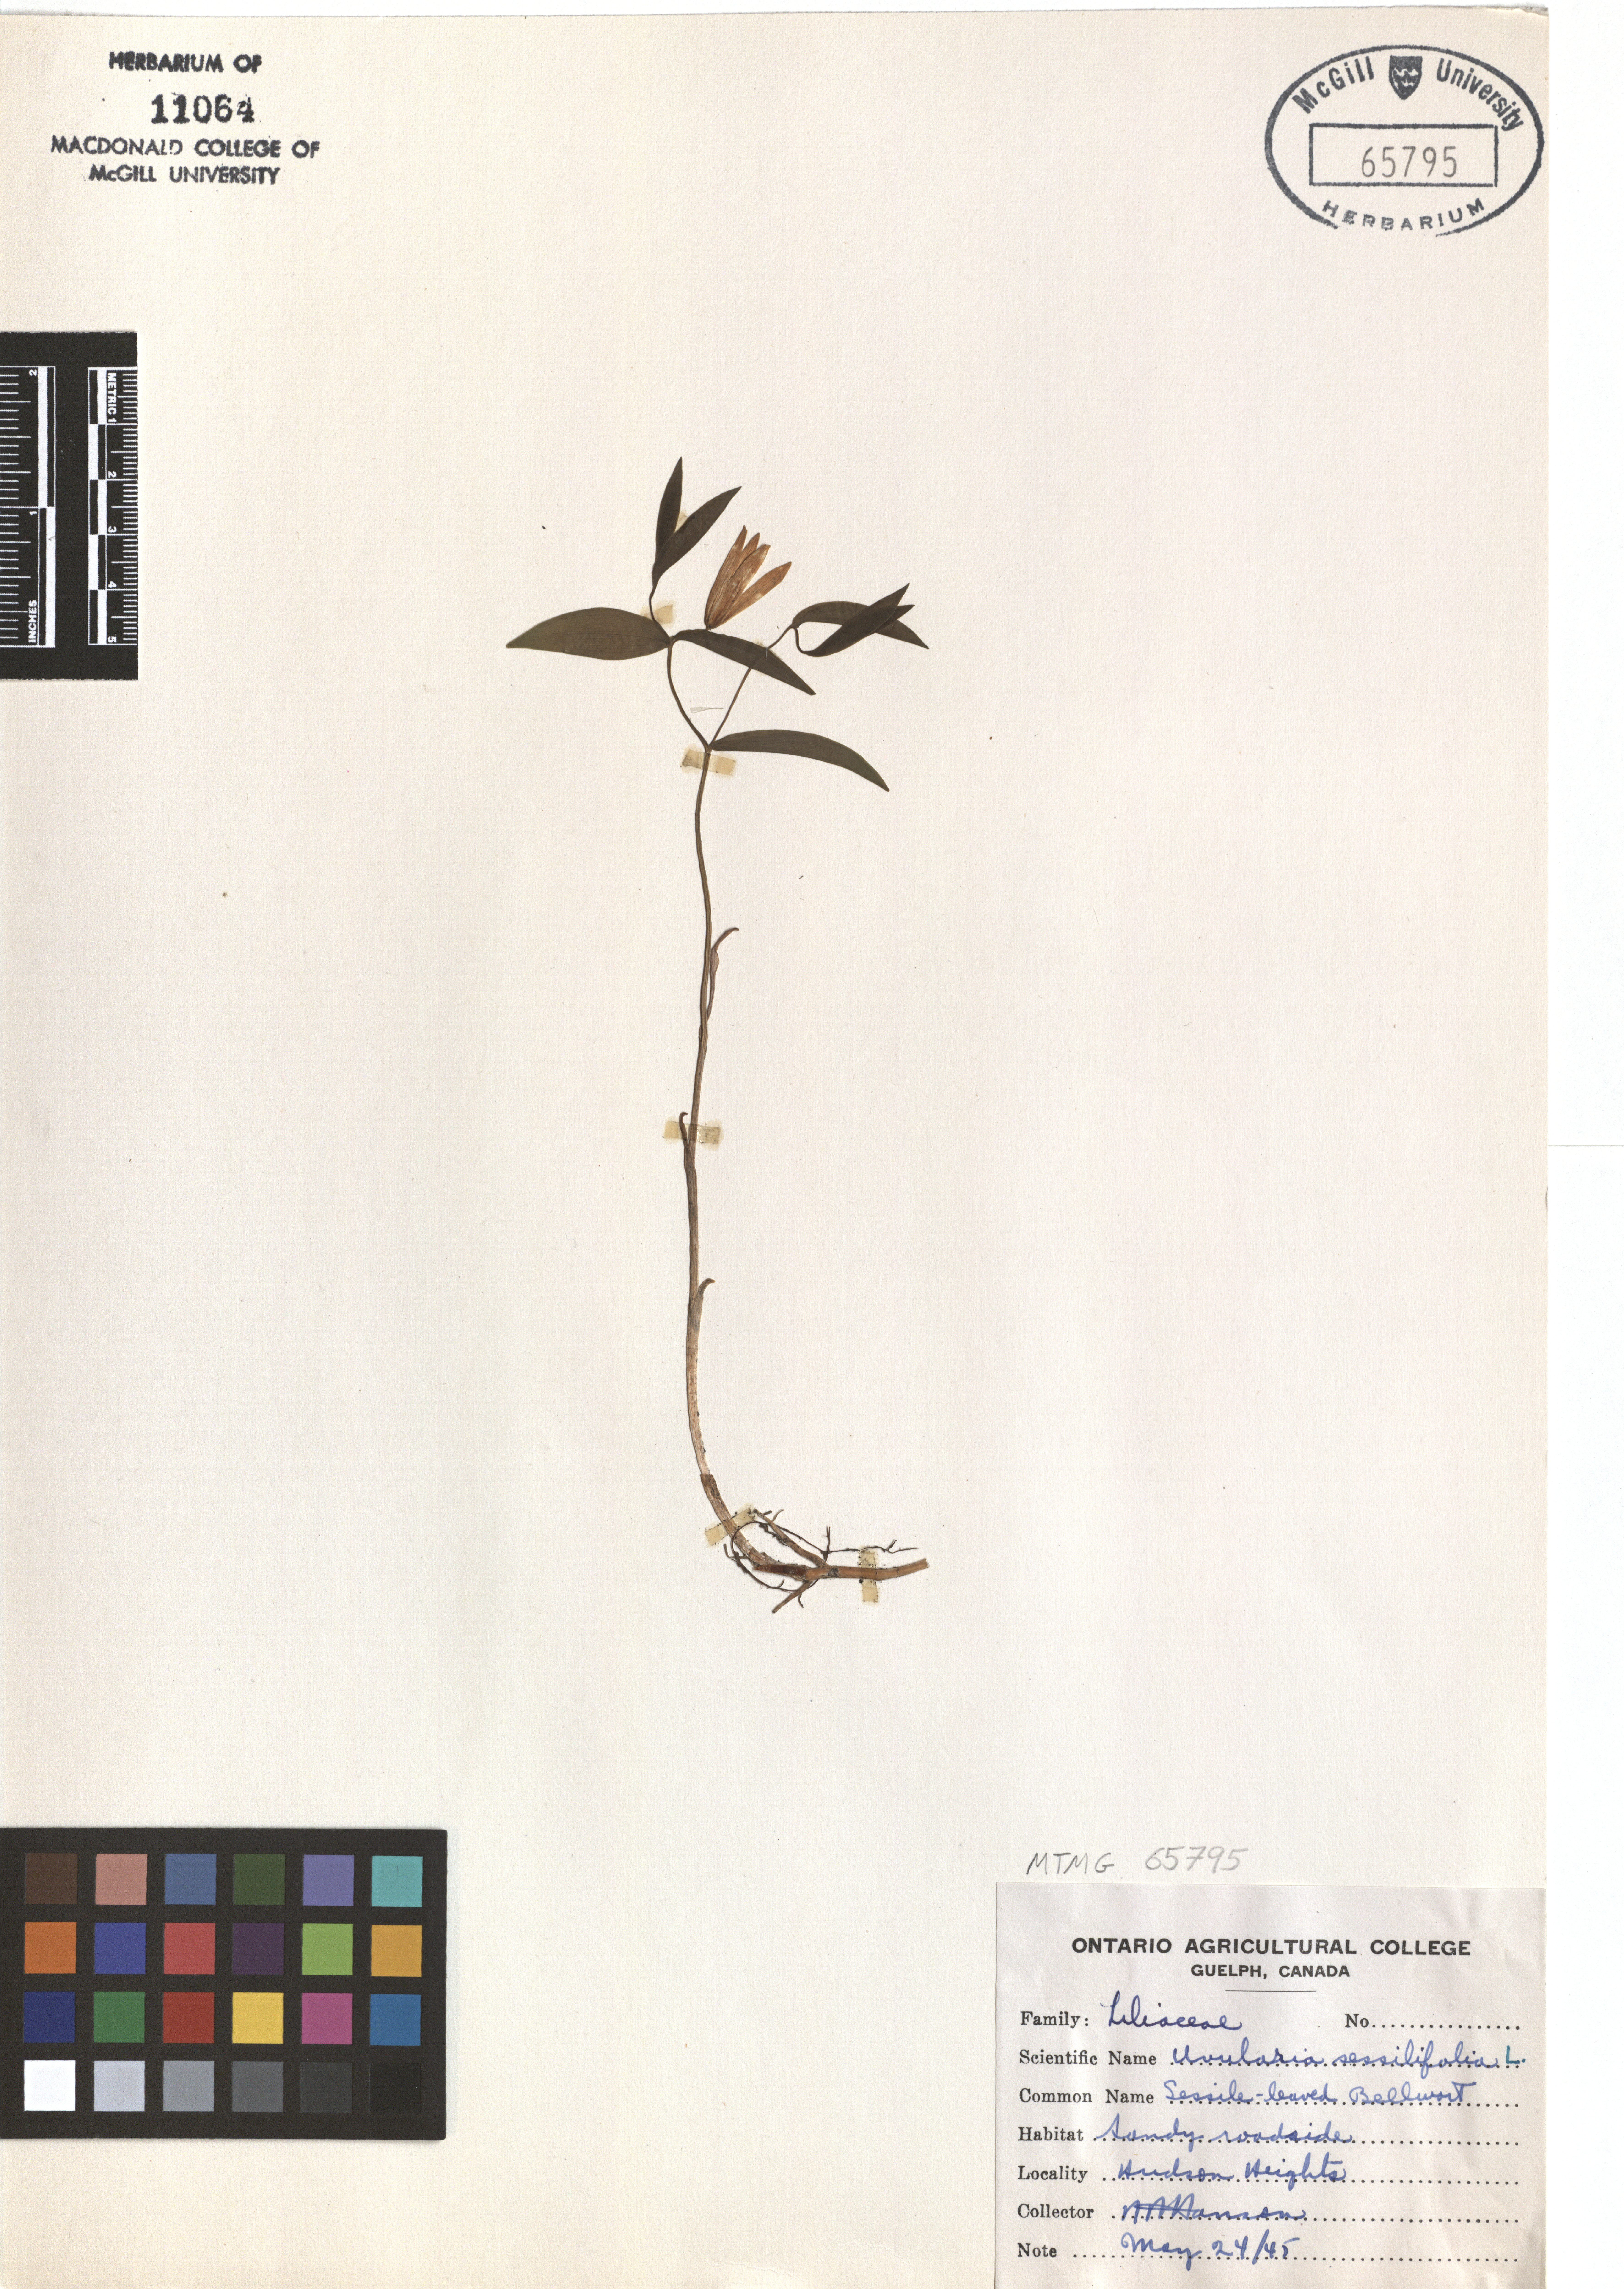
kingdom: Plantae
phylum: Tracheophyta
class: Liliopsida
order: Liliales
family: Colchicaceae
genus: Uvularia
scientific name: Uvularia sessilifolia
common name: Straw-lily
